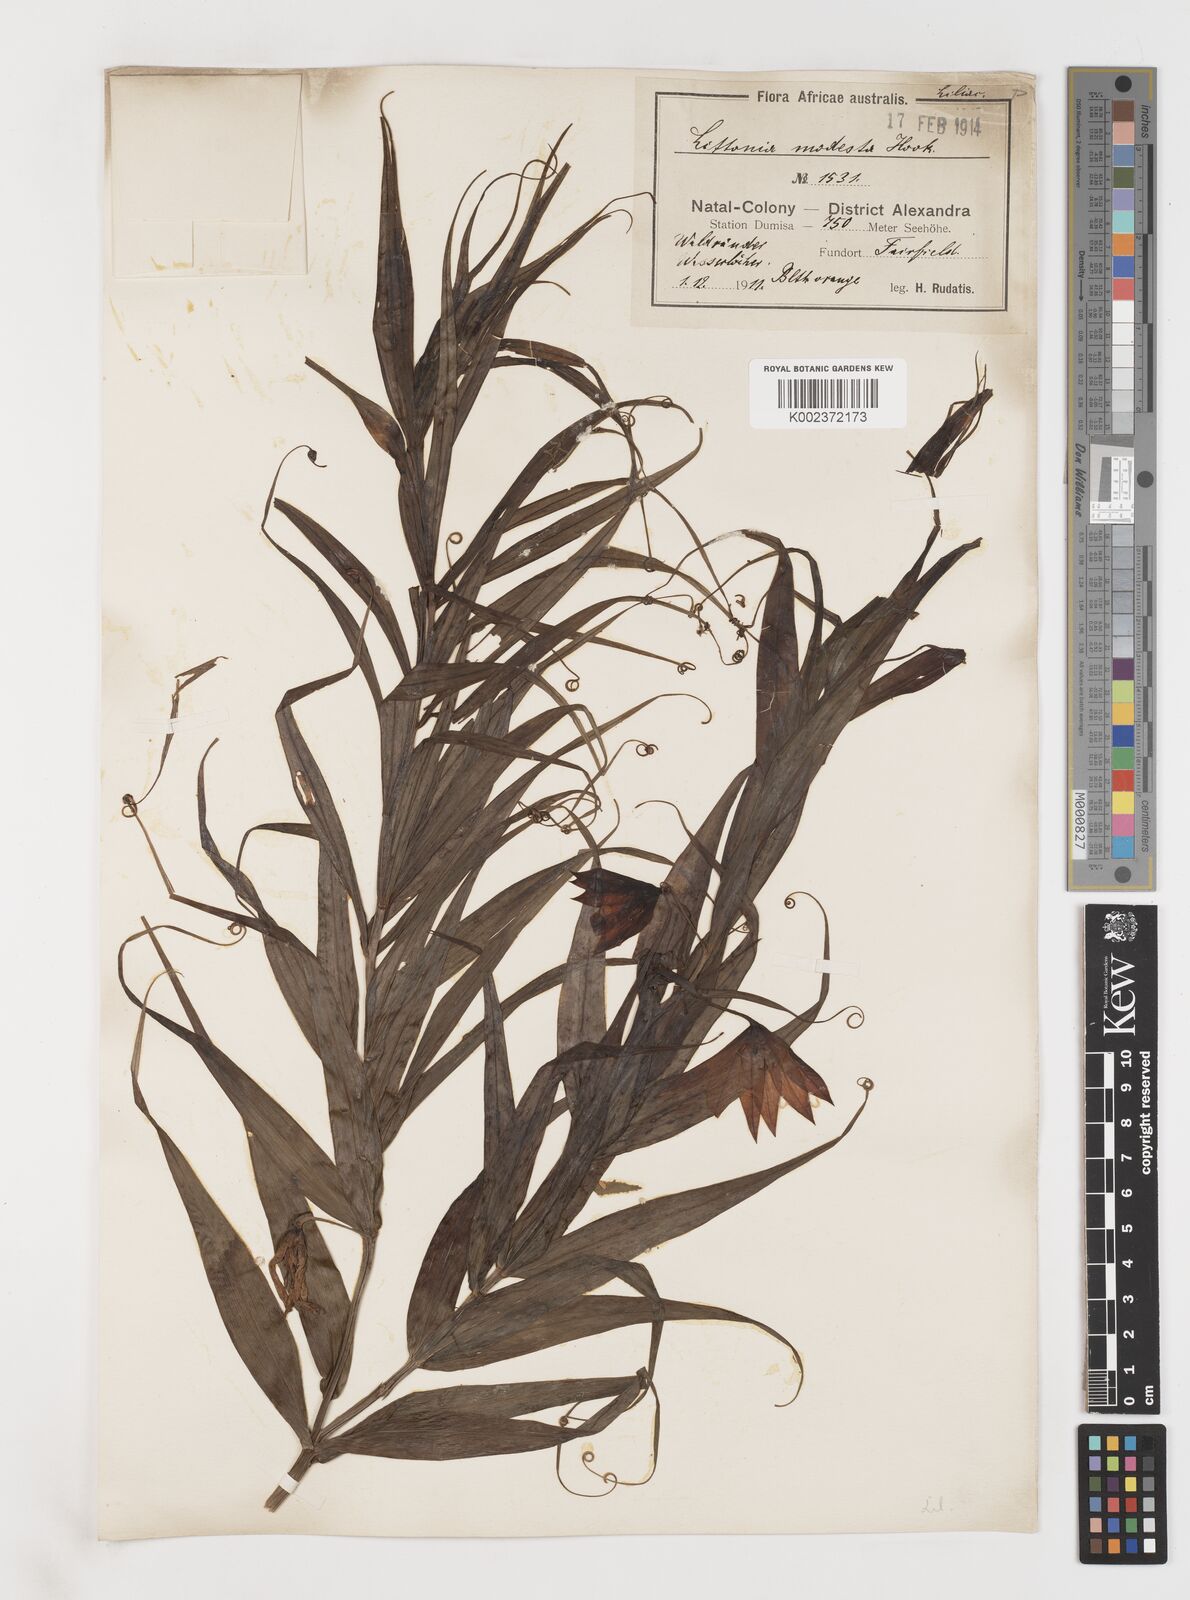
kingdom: Plantae
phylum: Tracheophyta
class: Liliopsida
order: Liliales
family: Colchicaceae
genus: Gloriosa
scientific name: Gloriosa modesta
